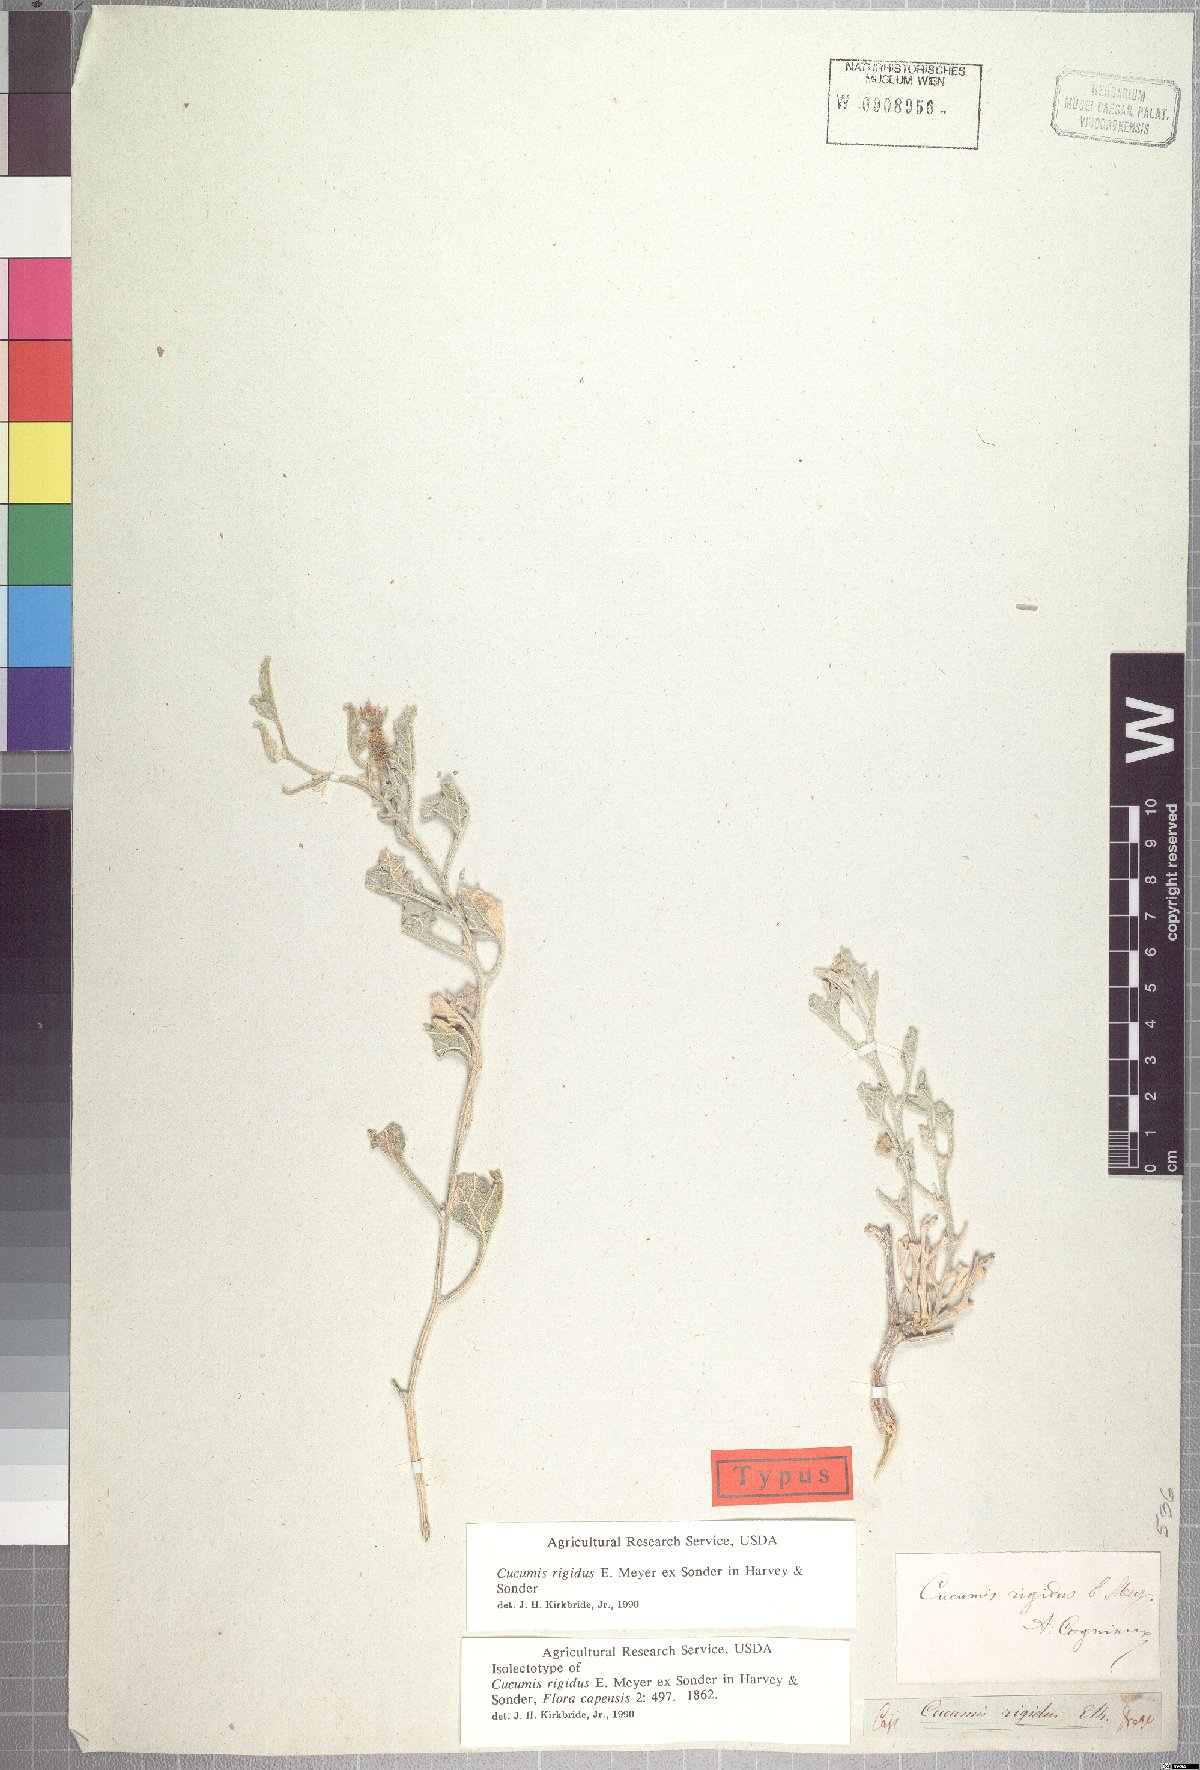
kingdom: Plantae
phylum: Tracheophyta
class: Magnoliopsida
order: Cucurbitales
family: Cucurbitaceae
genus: Cucumis
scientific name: Cucumis rigidus
